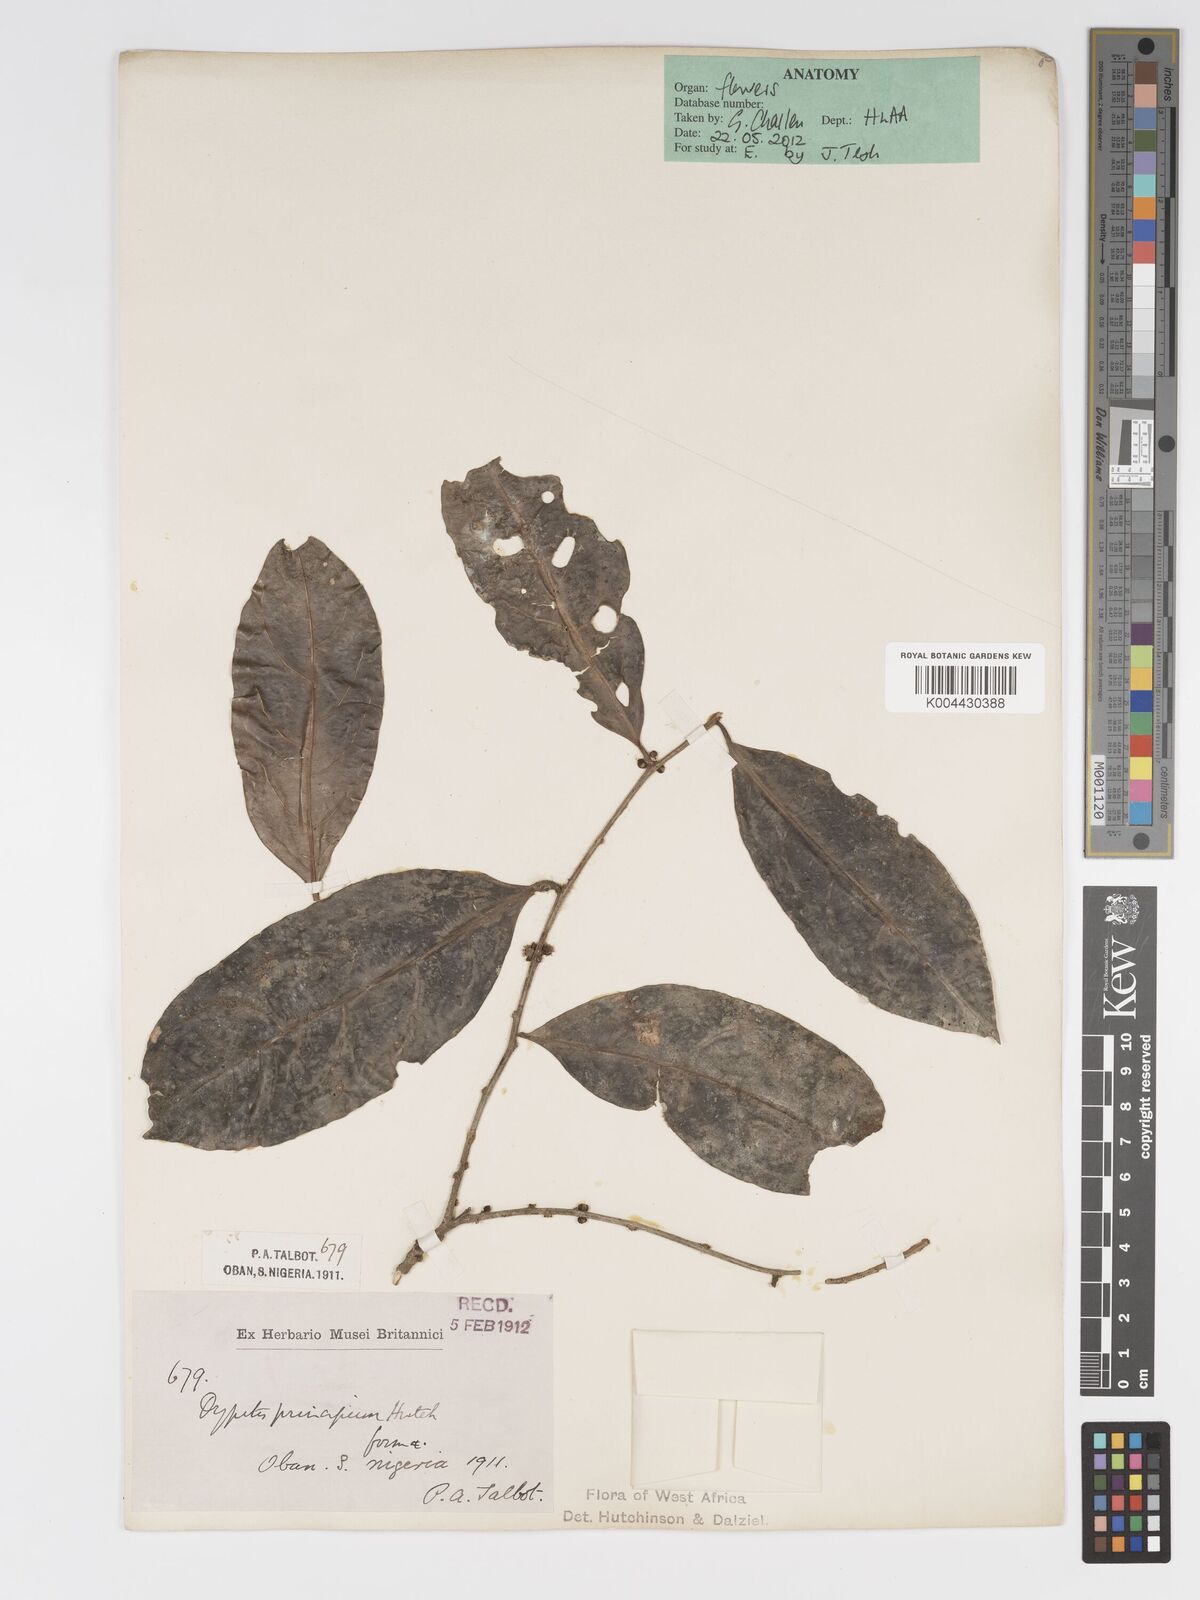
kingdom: Plantae
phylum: Tracheophyta
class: Magnoliopsida
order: Malpighiales
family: Putranjivaceae
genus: Drypetes
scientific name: Drypetes principum
